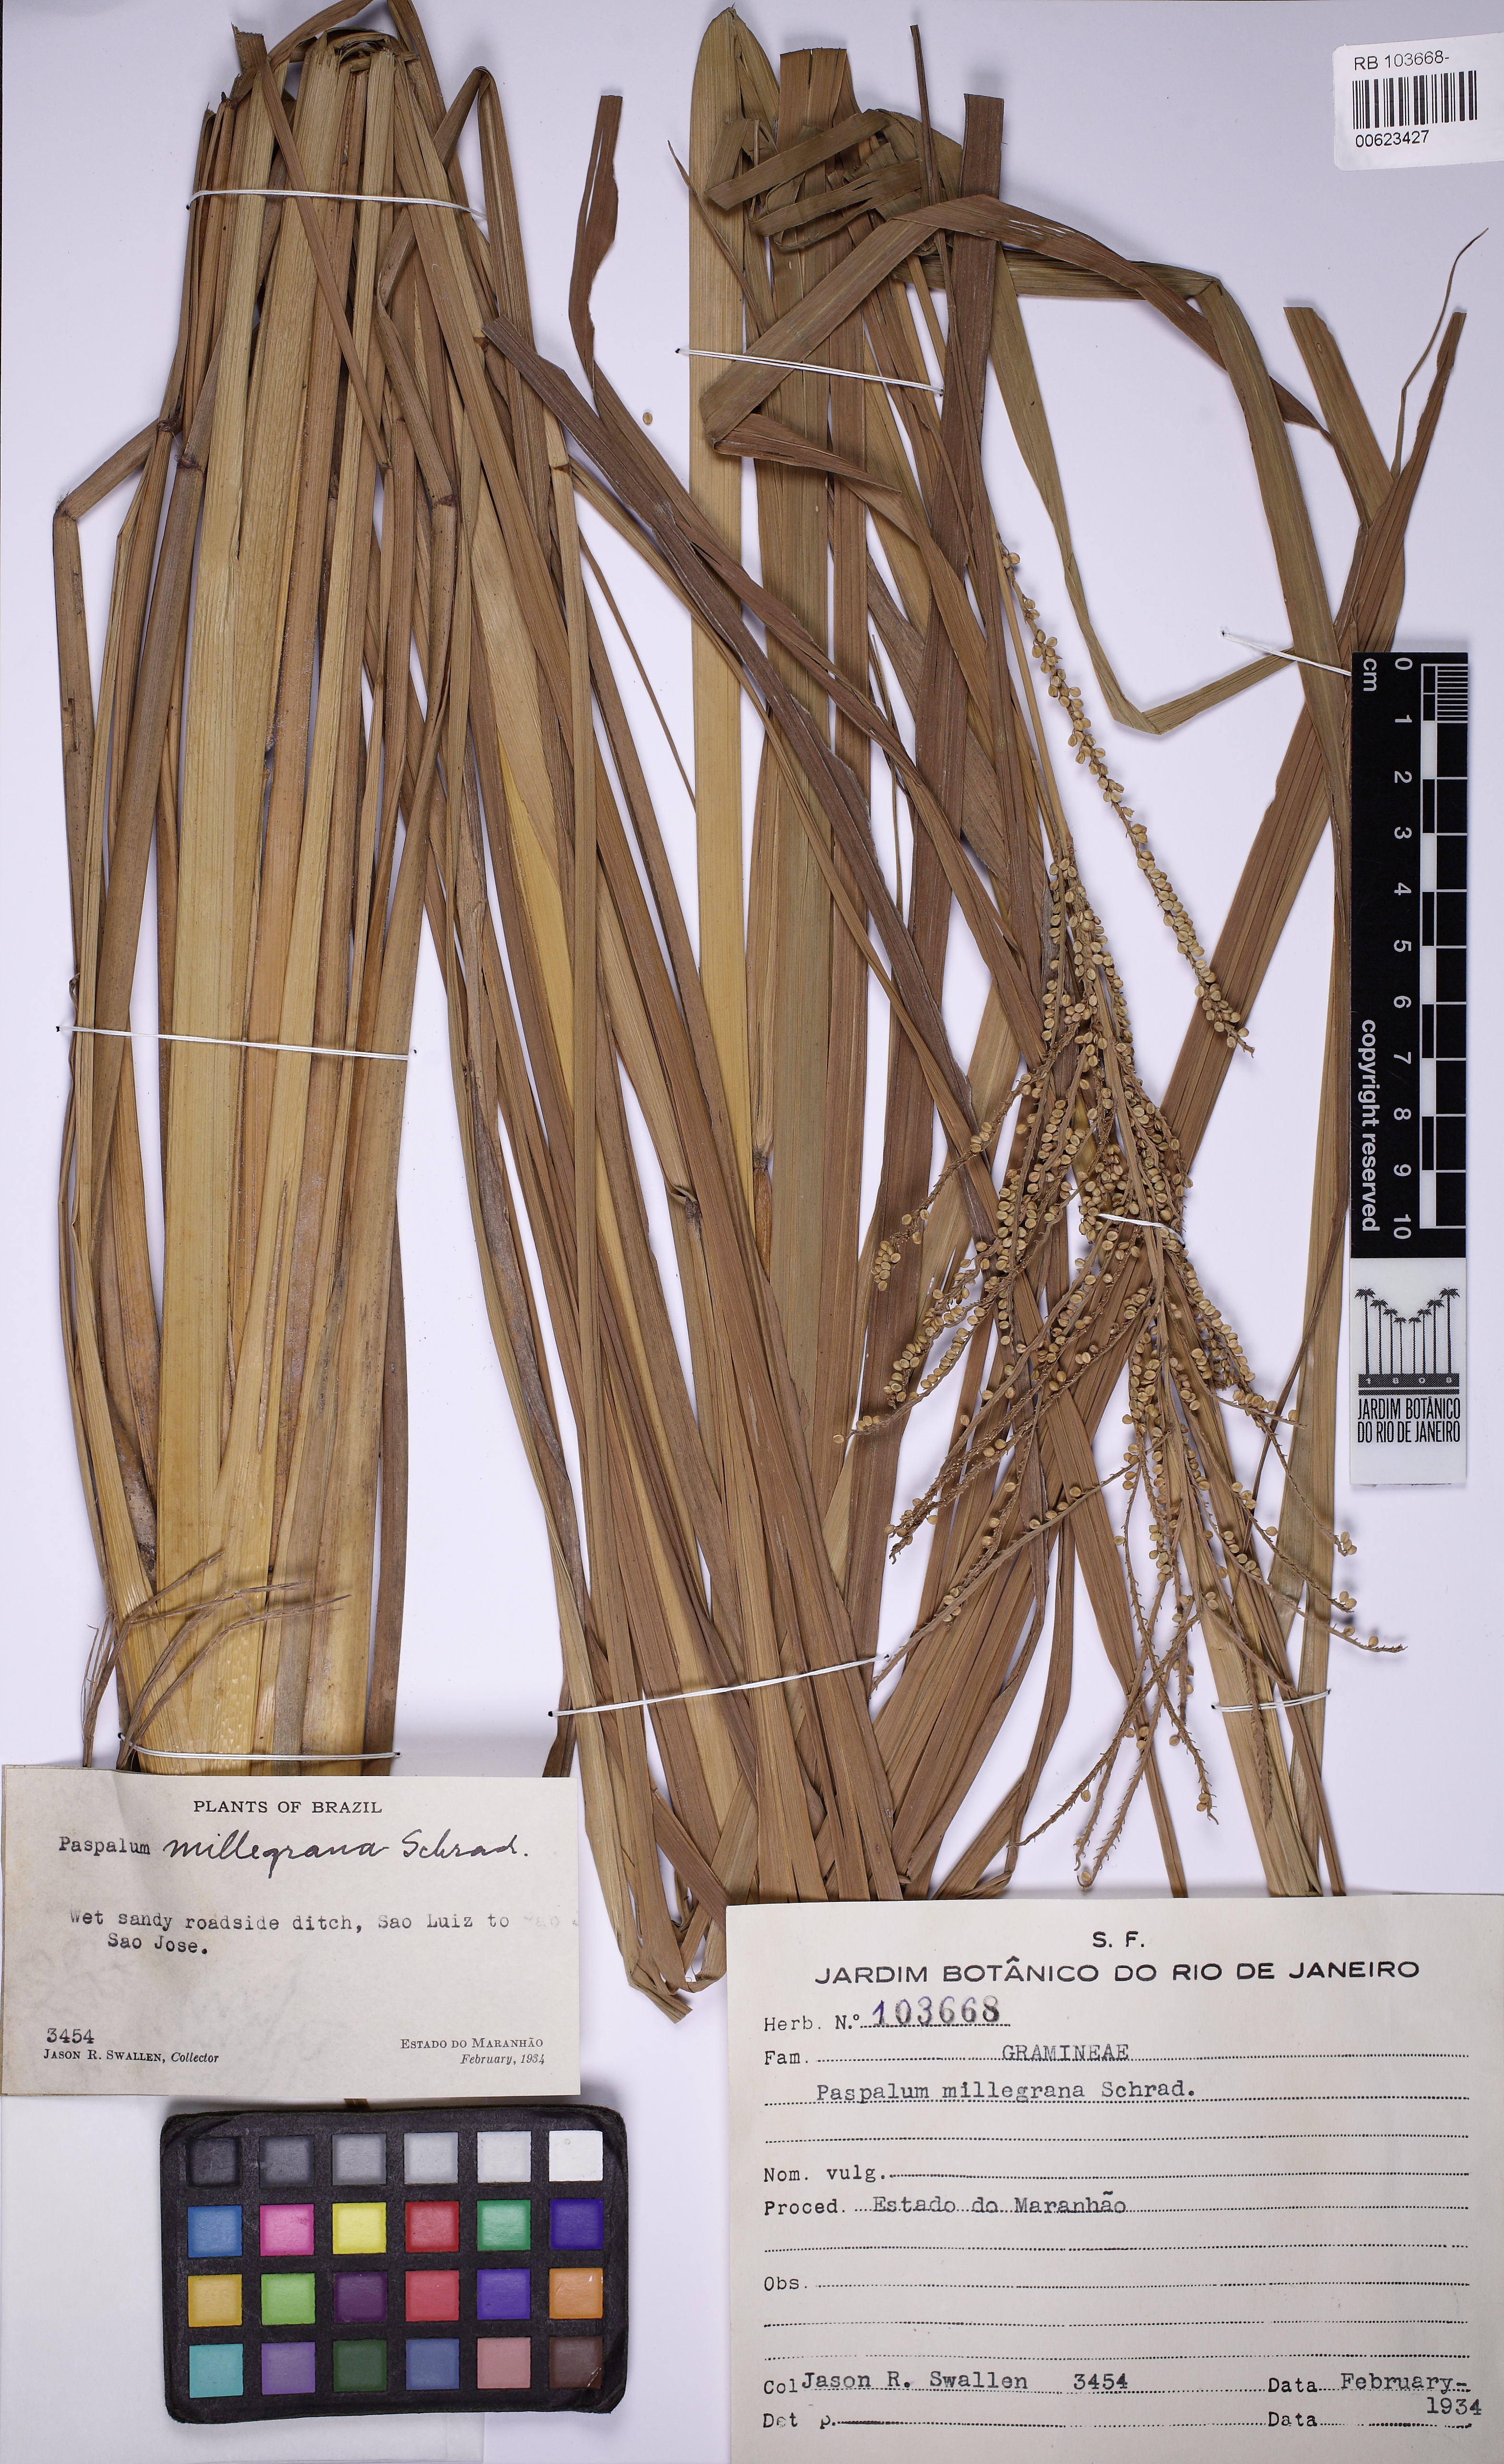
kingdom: Plantae
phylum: Tracheophyta
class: Liliopsida
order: Poales
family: Poaceae
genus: Paspalum
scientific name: Paspalum millegrana
